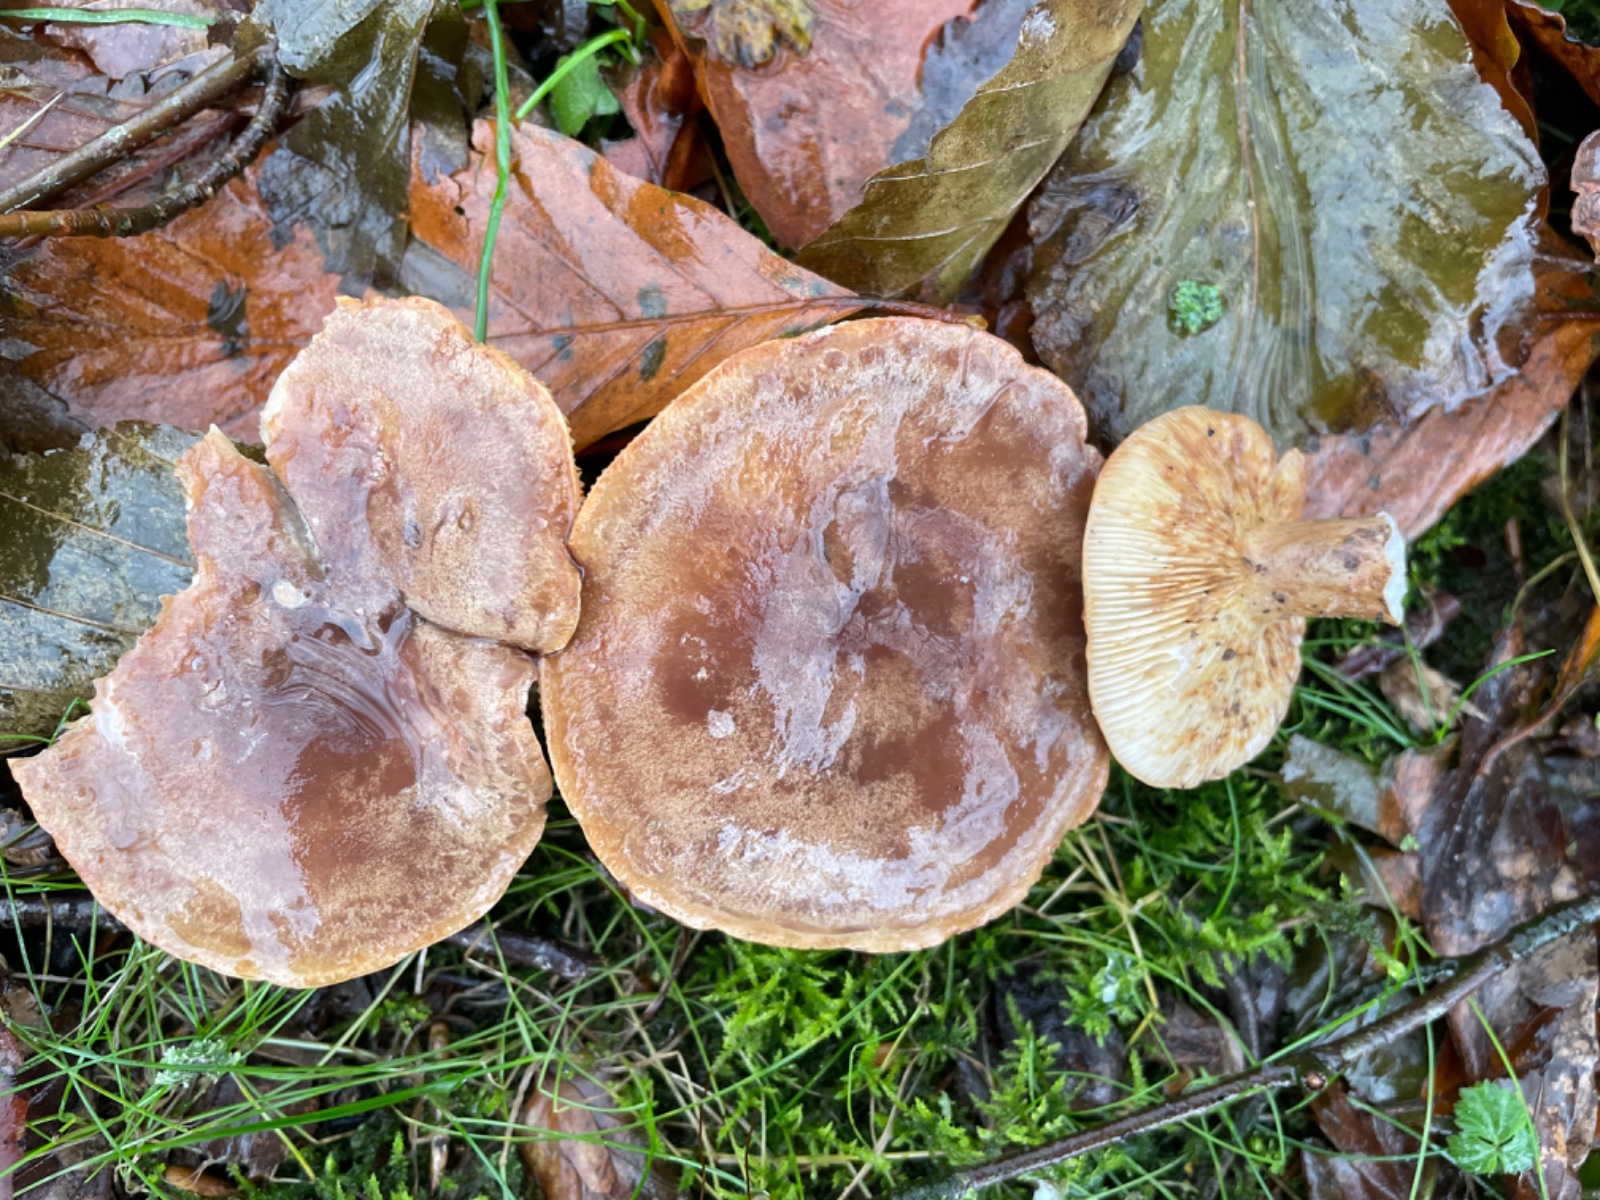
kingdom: Fungi
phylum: Basidiomycota
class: Agaricomycetes
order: Russulales
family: Russulaceae
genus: Lactarius
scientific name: Lactarius fluens
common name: lysrandet mælkehat
